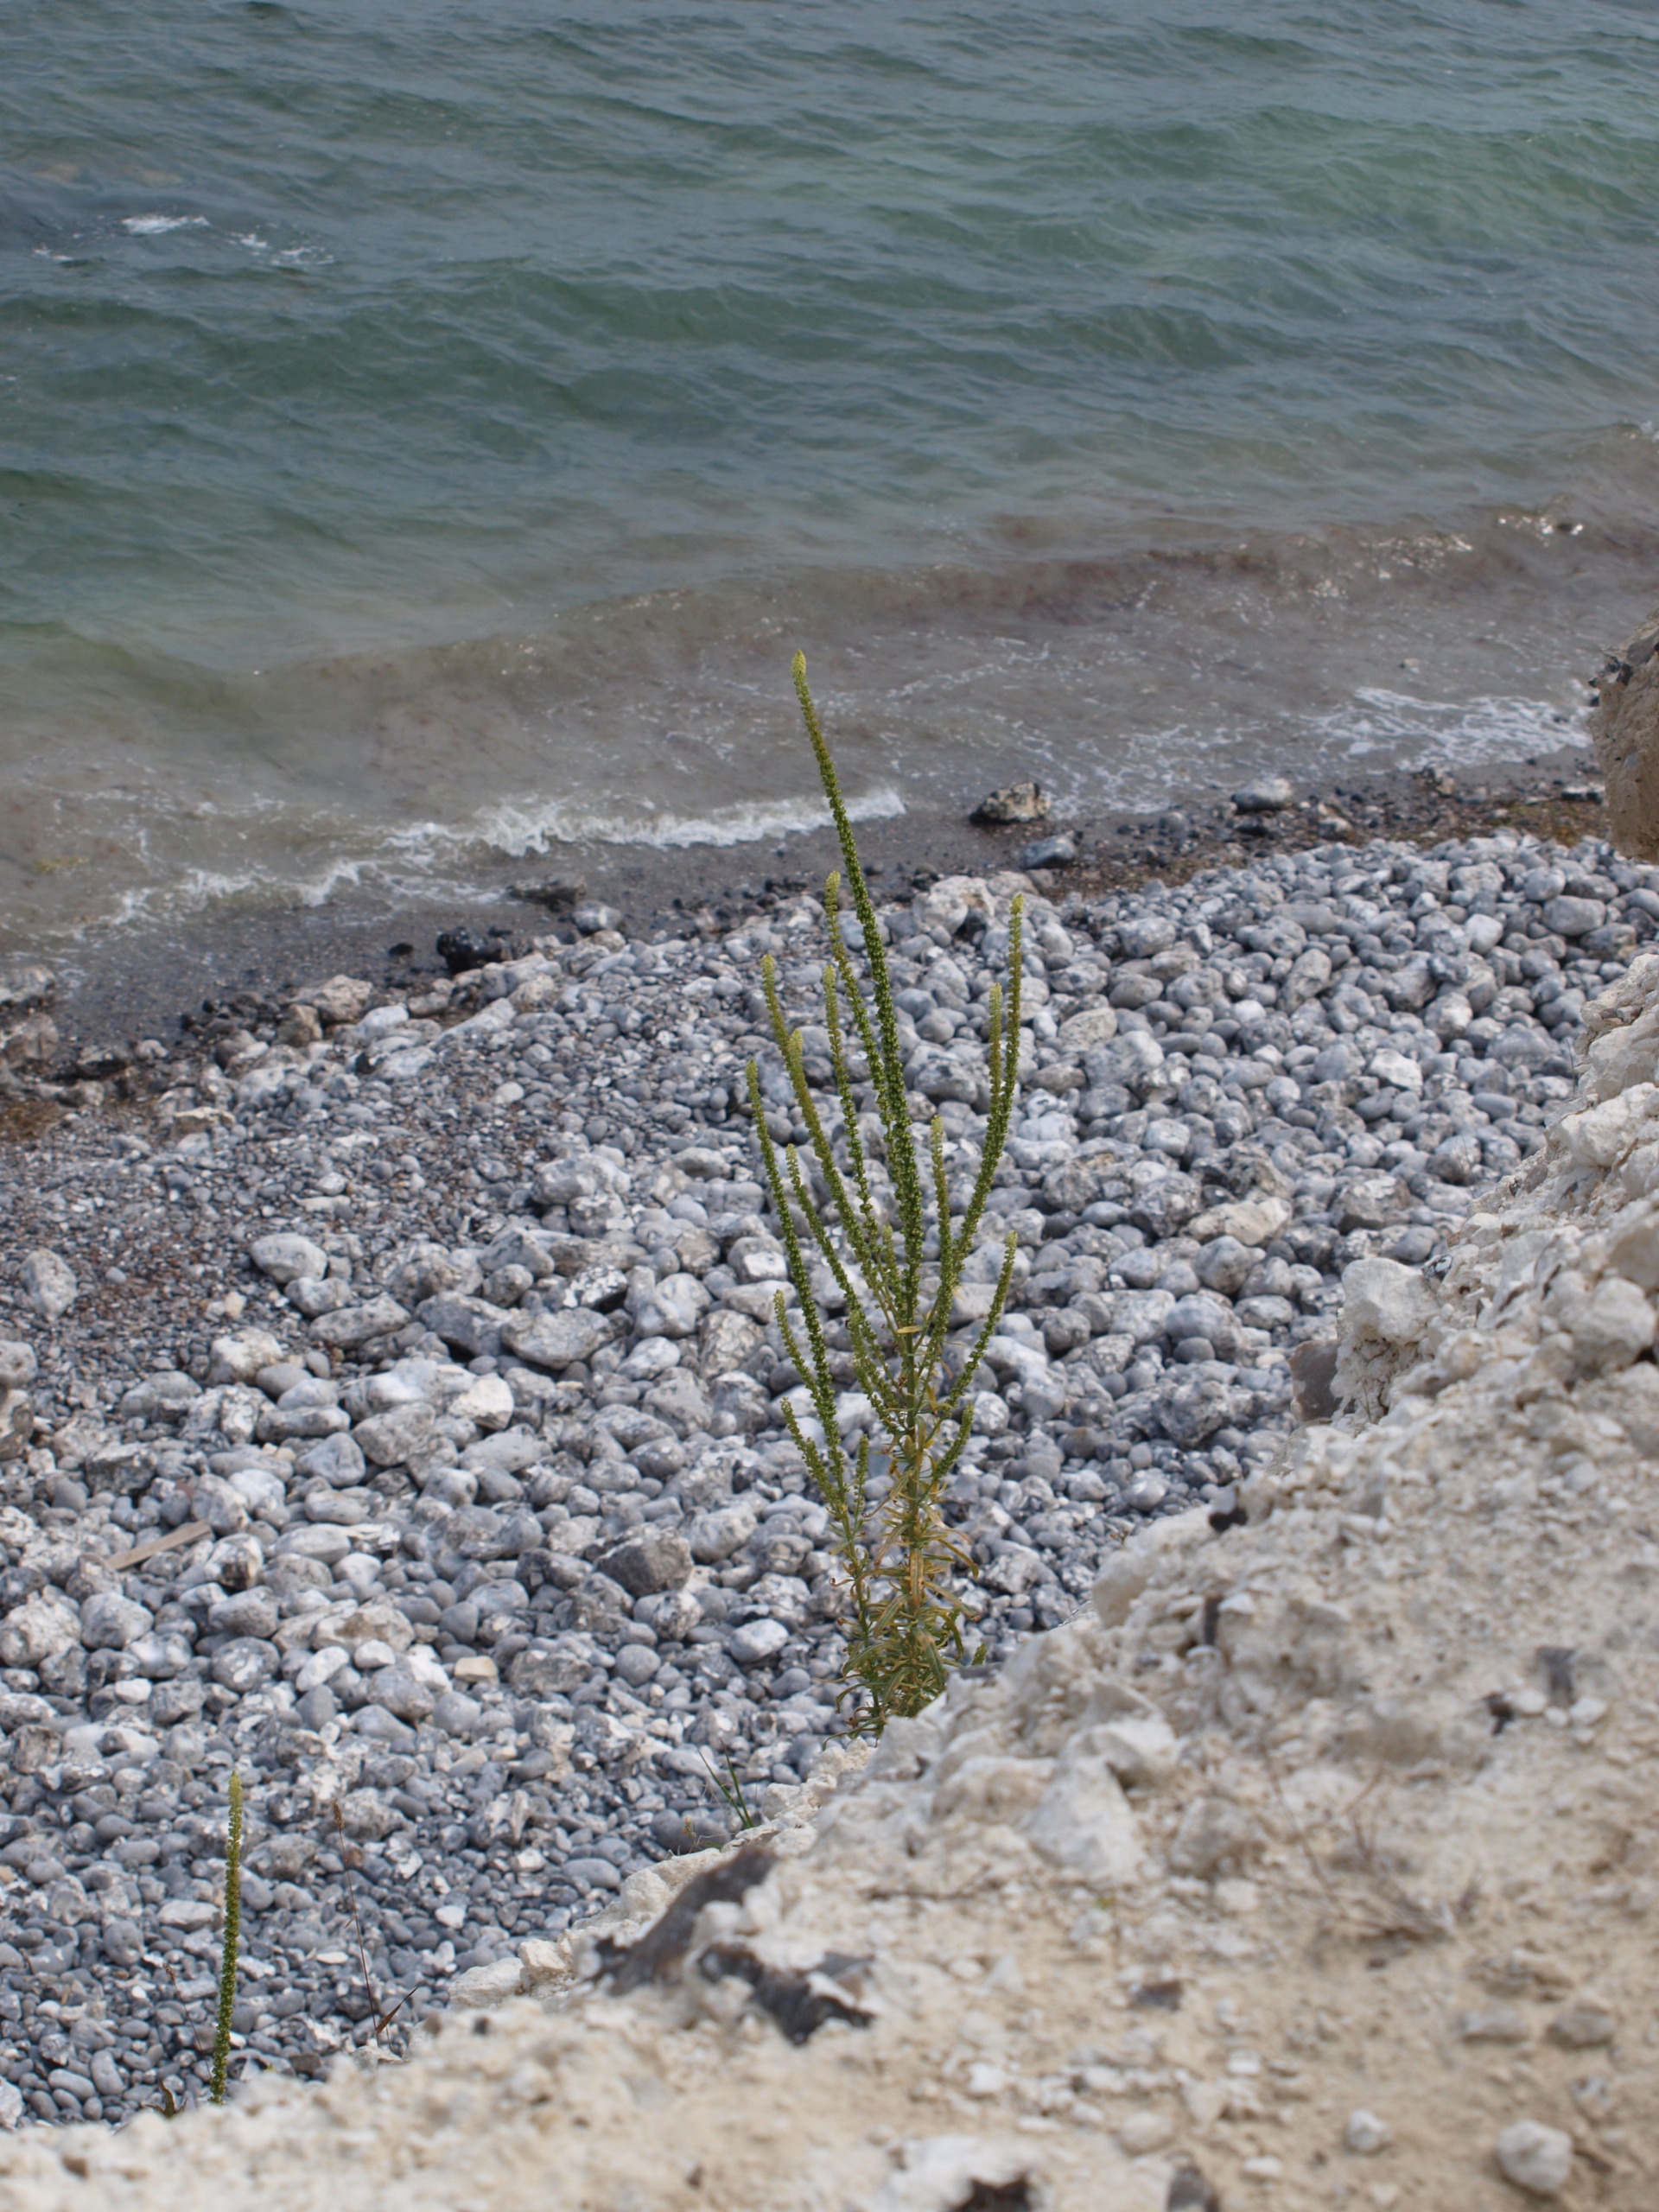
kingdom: Plantae
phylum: Tracheophyta
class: Magnoliopsida
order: Brassicales
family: Resedaceae
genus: Reseda
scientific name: Reseda luteola
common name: Farve-reseda
